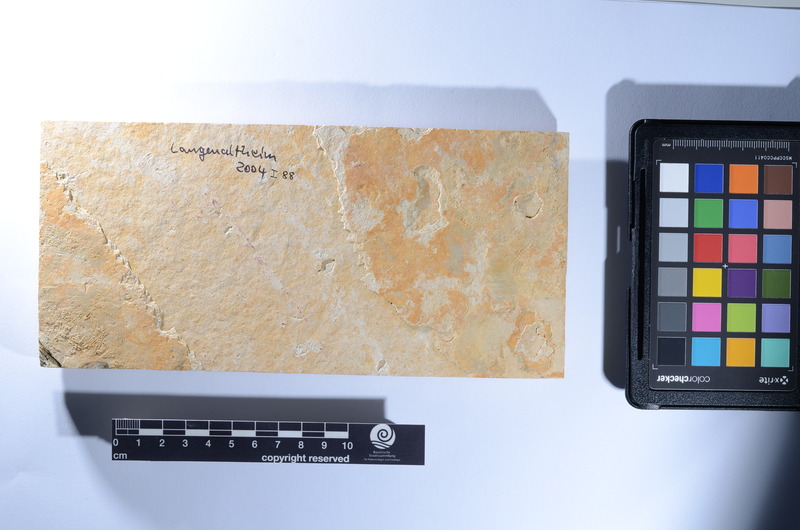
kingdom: Animalia
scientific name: Animalia
